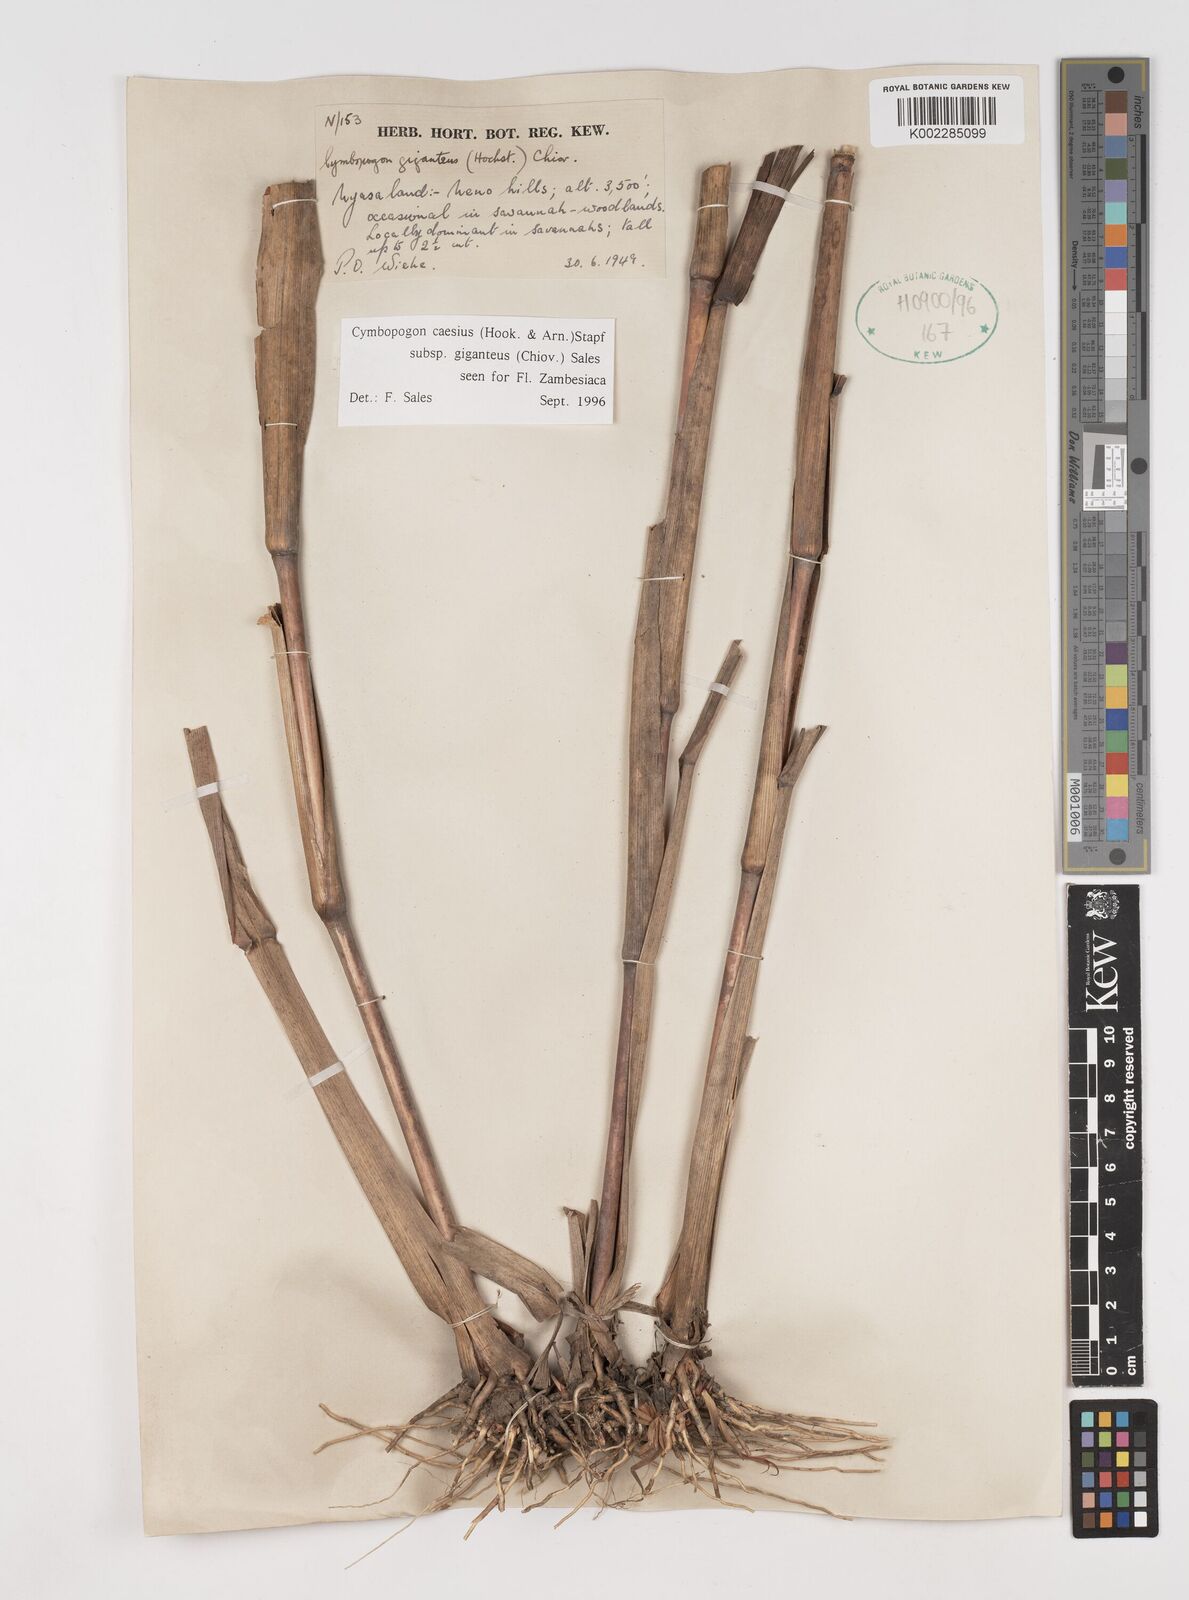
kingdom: Plantae
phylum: Tracheophyta
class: Liliopsida
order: Poales
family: Poaceae
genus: Cymbopogon
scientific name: Cymbopogon giganteus
